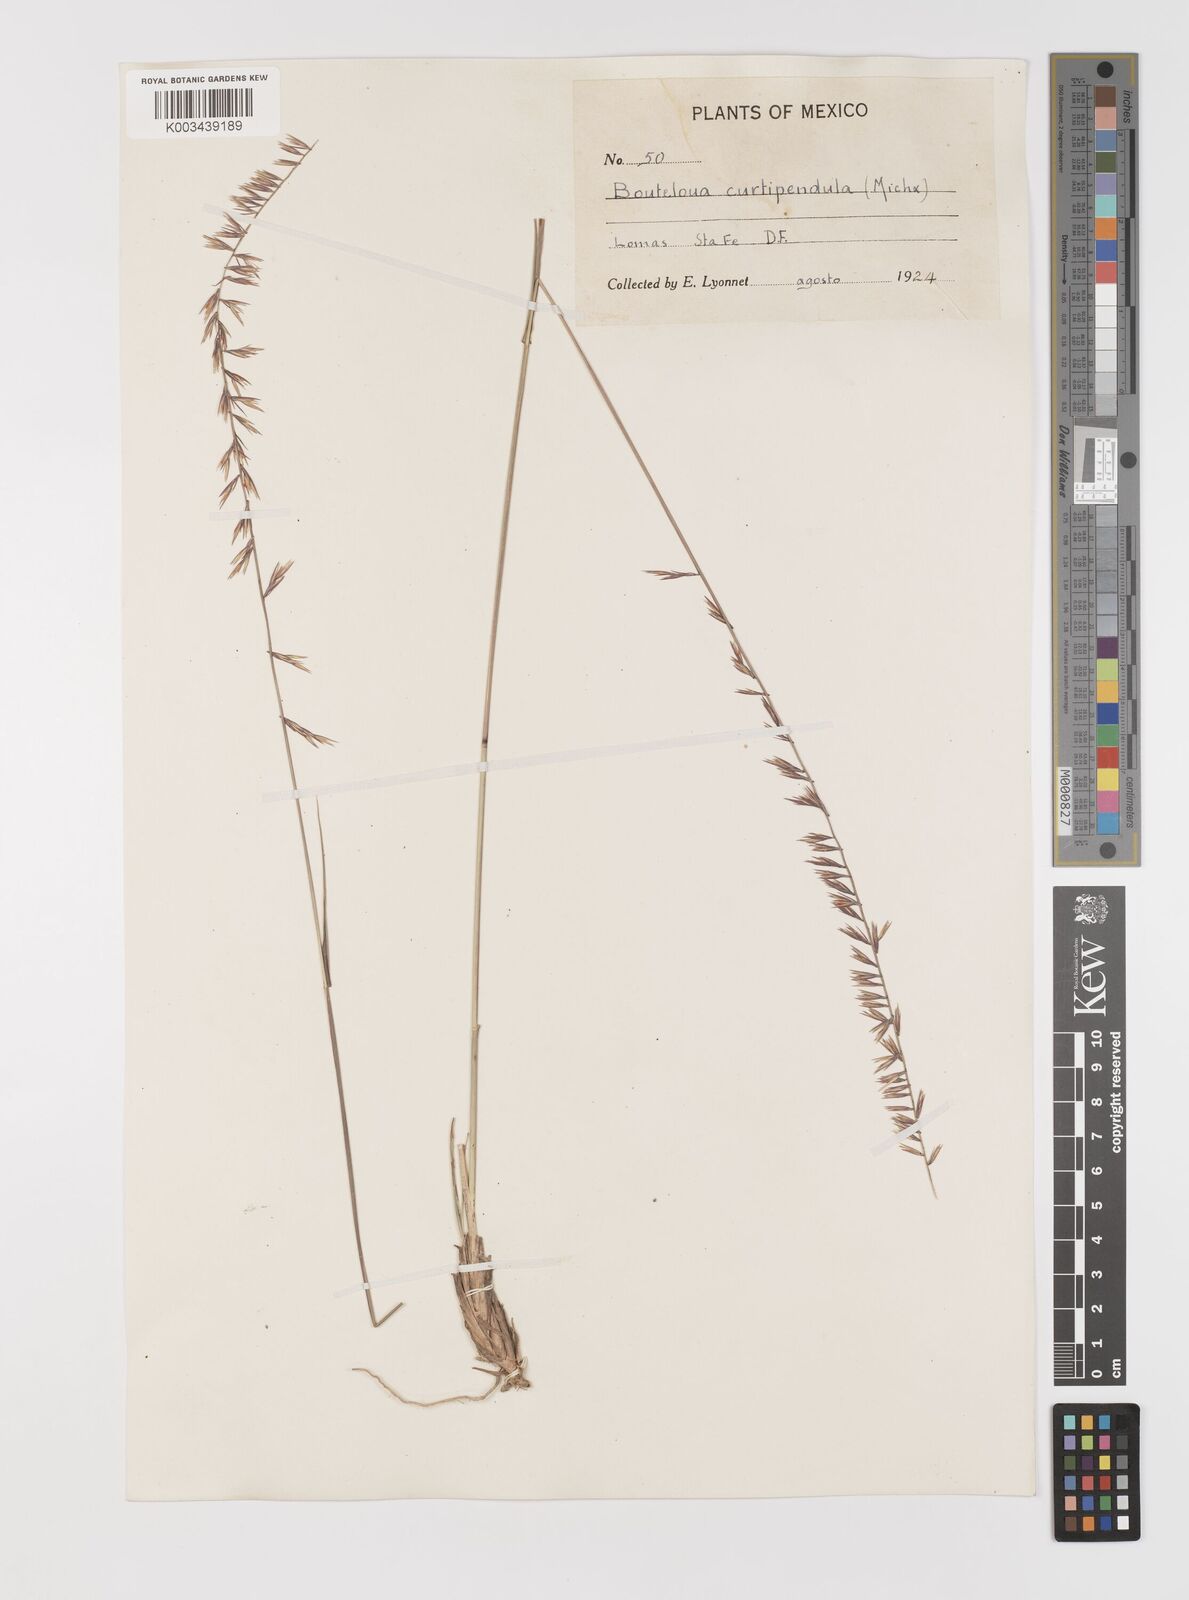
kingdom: Plantae
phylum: Tracheophyta
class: Liliopsida
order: Poales
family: Poaceae
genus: Bouteloua
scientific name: Bouteloua curtipendula
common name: Side-oats grama
